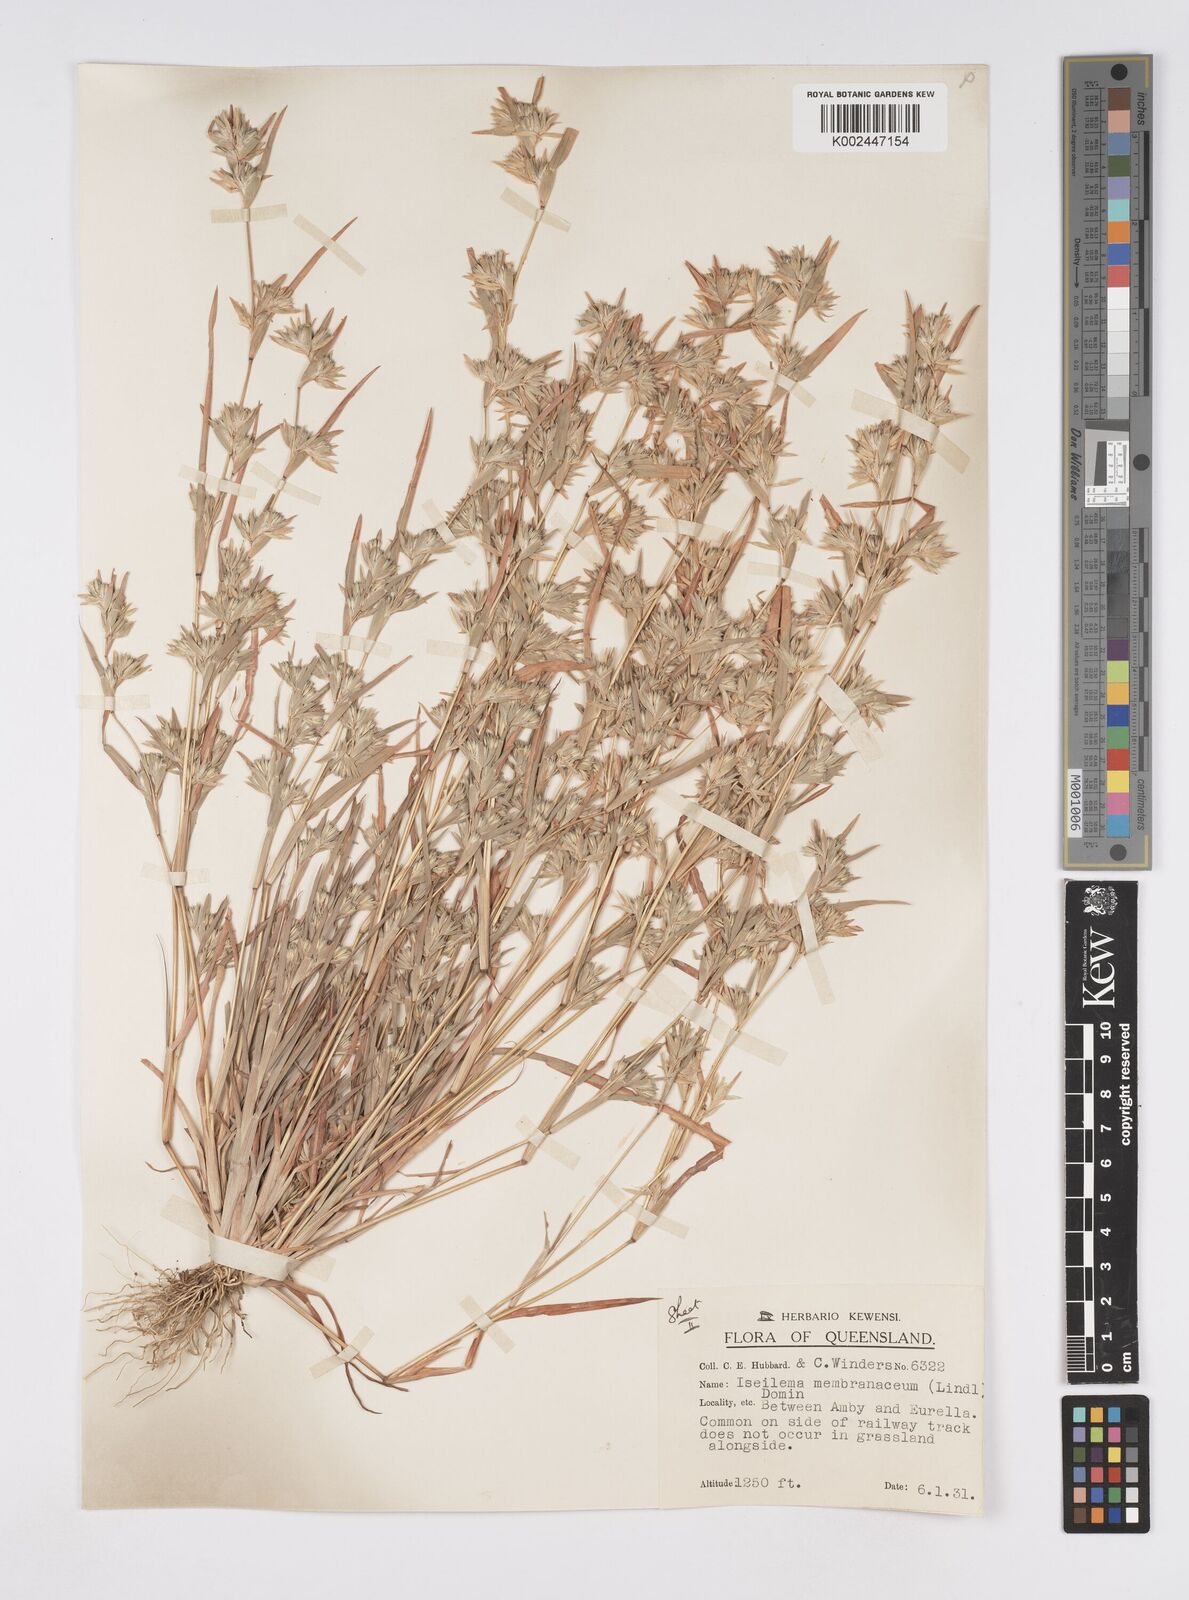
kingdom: Plantae
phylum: Tracheophyta
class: Liliopsida
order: Poales
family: Poaceae
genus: Iseilema
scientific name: Iseilema membranaceum
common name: Small flinders grass
